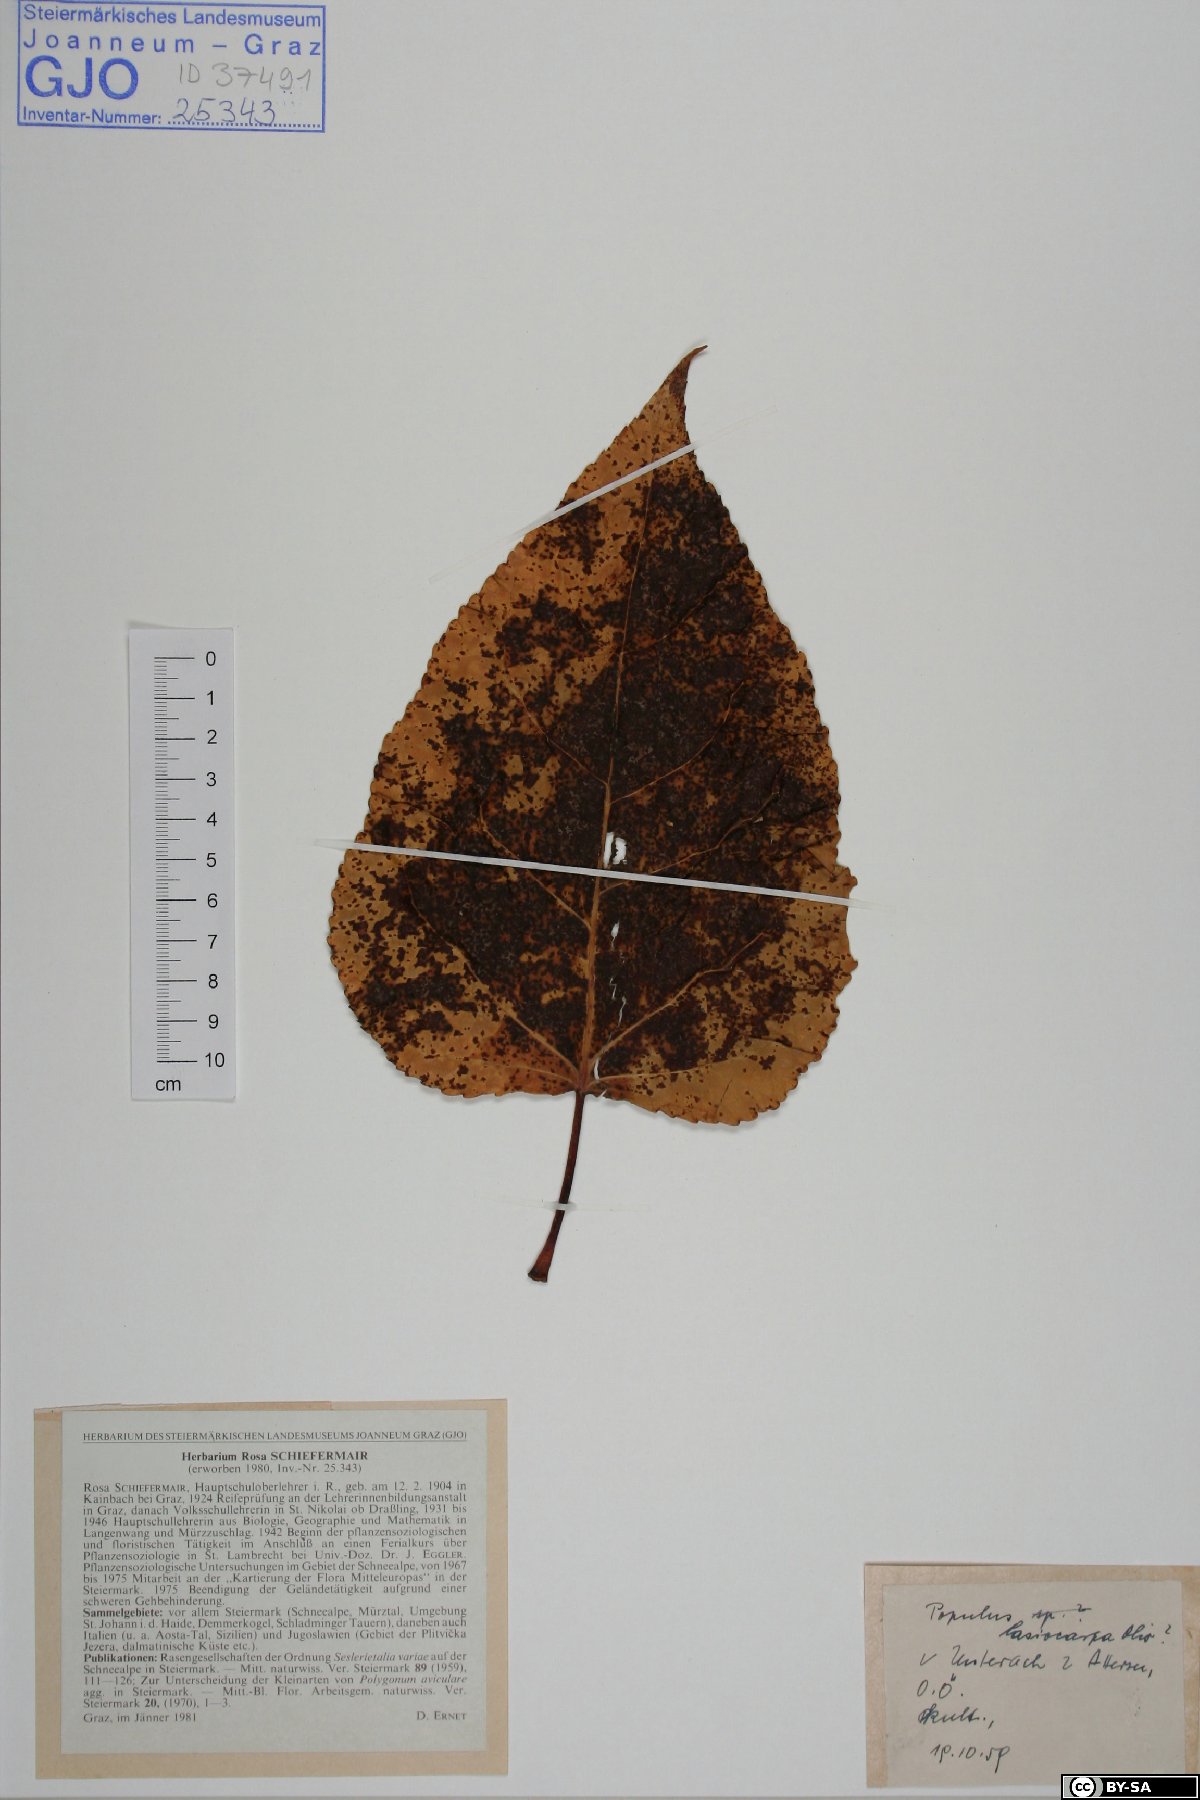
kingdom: Plantae
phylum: Tracheophyta
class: Magnoliopsida
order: Malpighiales
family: Salicaceae
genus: Populus
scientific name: Populus lasiocarpa
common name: Chinese necklace poplar
